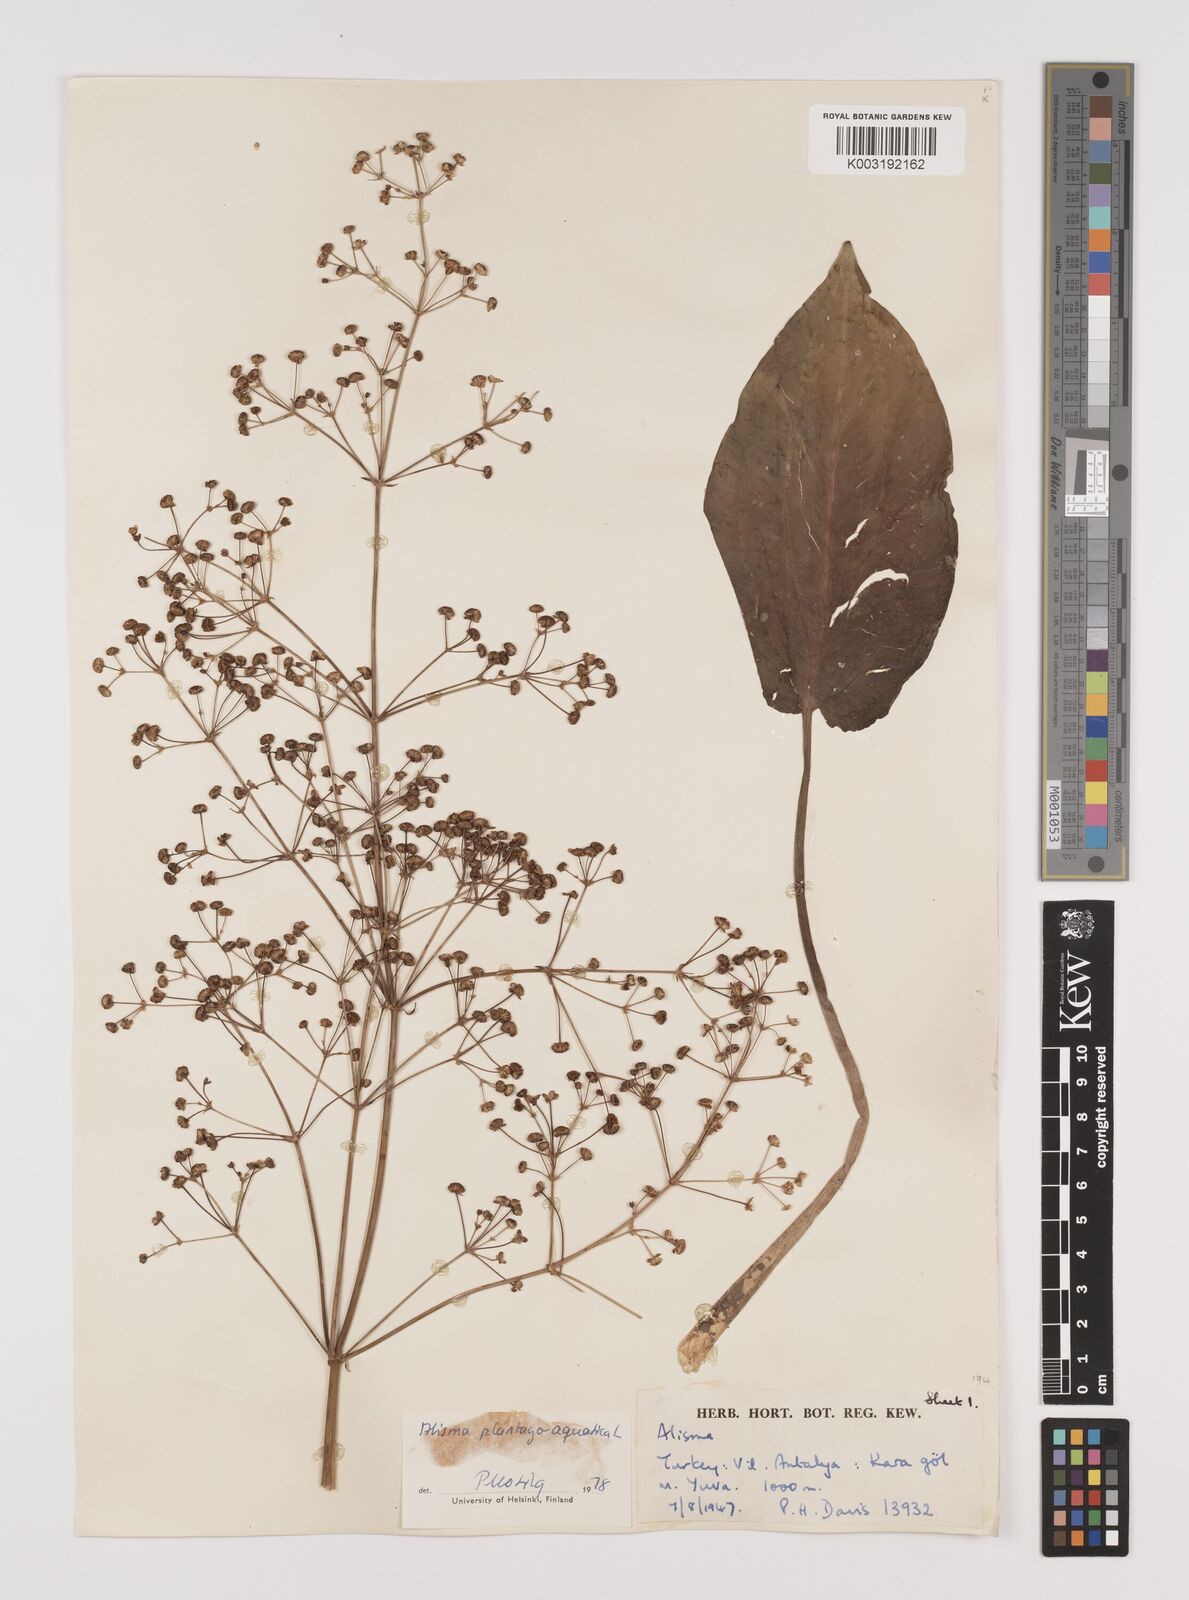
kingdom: Plantae
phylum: Tracheophyta
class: Liliopsida
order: Alismatales
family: Alismataceae
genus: Alisma
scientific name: Alisma plantago-aquatica
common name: Water-plantain
